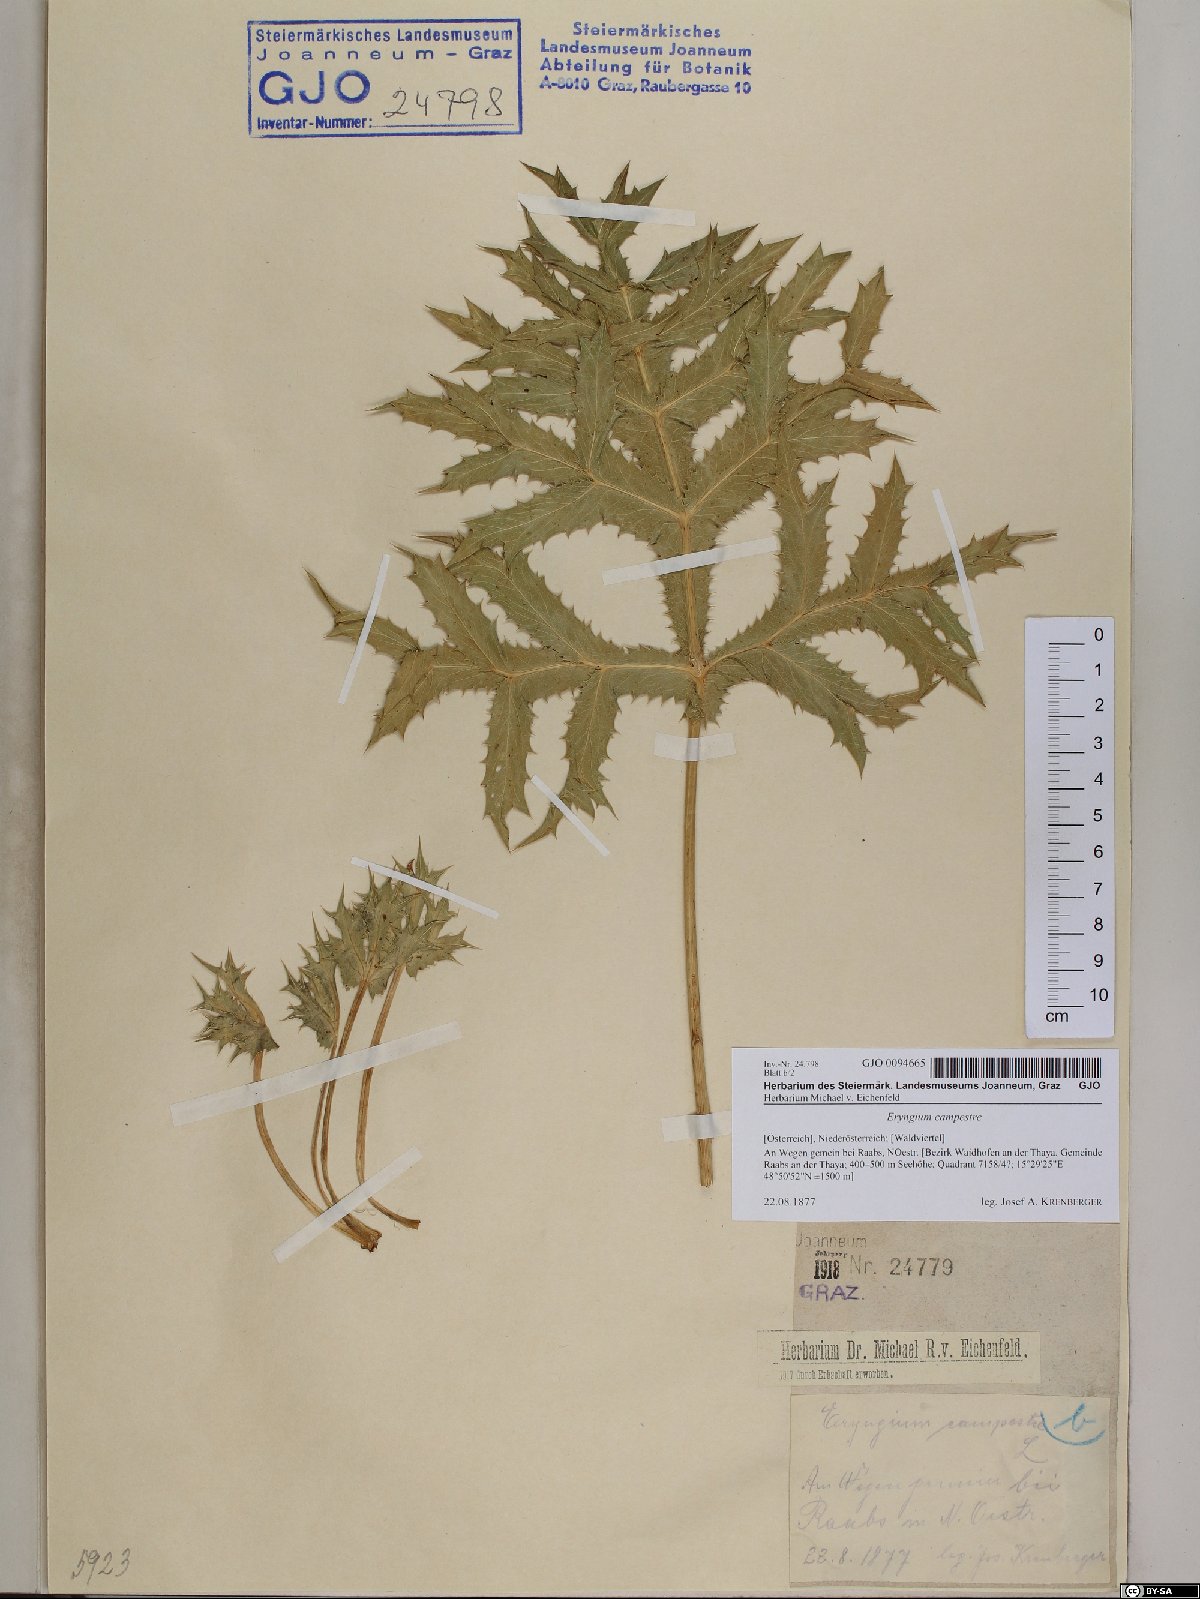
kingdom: Plantae
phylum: Tracheophyta
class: Magnoliopsida
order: Apiales
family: Apiaceae
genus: Eryngium
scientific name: Eryngium campestre
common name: Field eryngo
